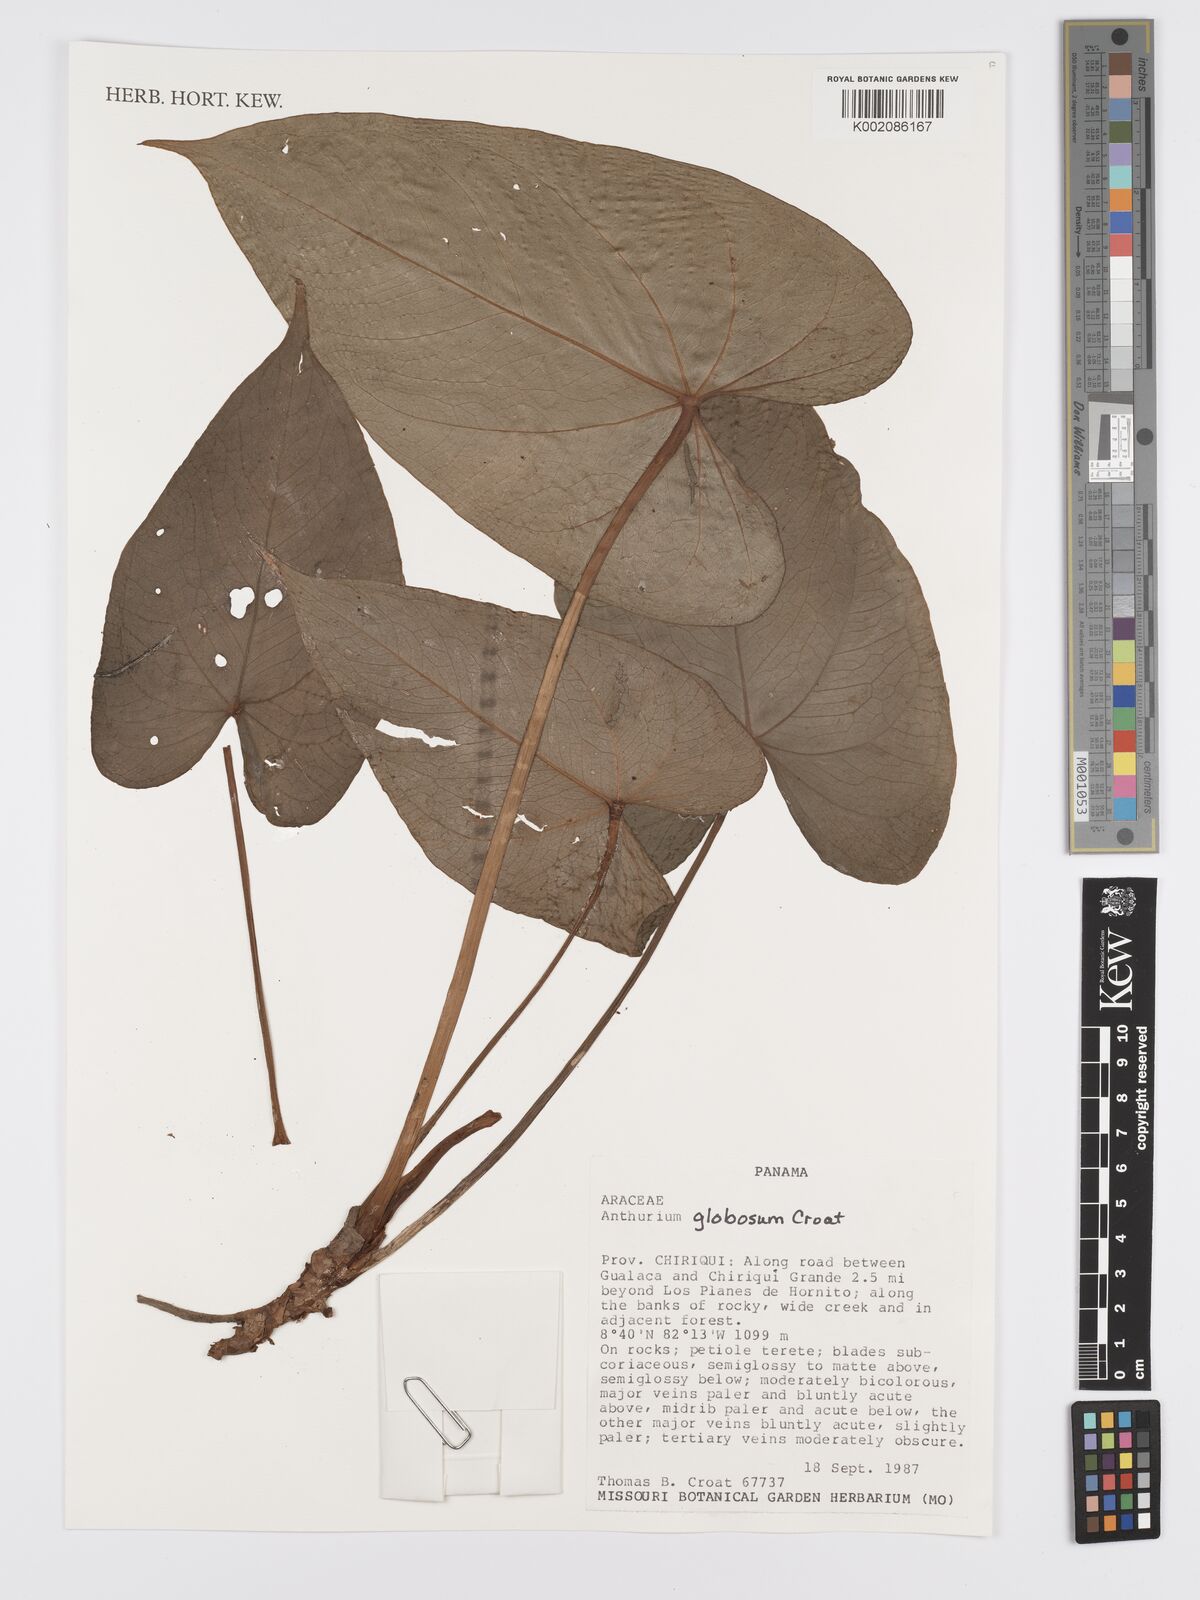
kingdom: Plantae
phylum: Tracheophyta
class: Liliopsida
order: Alismatales
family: Araceae
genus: Anthurium
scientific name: Anthurium globosum
